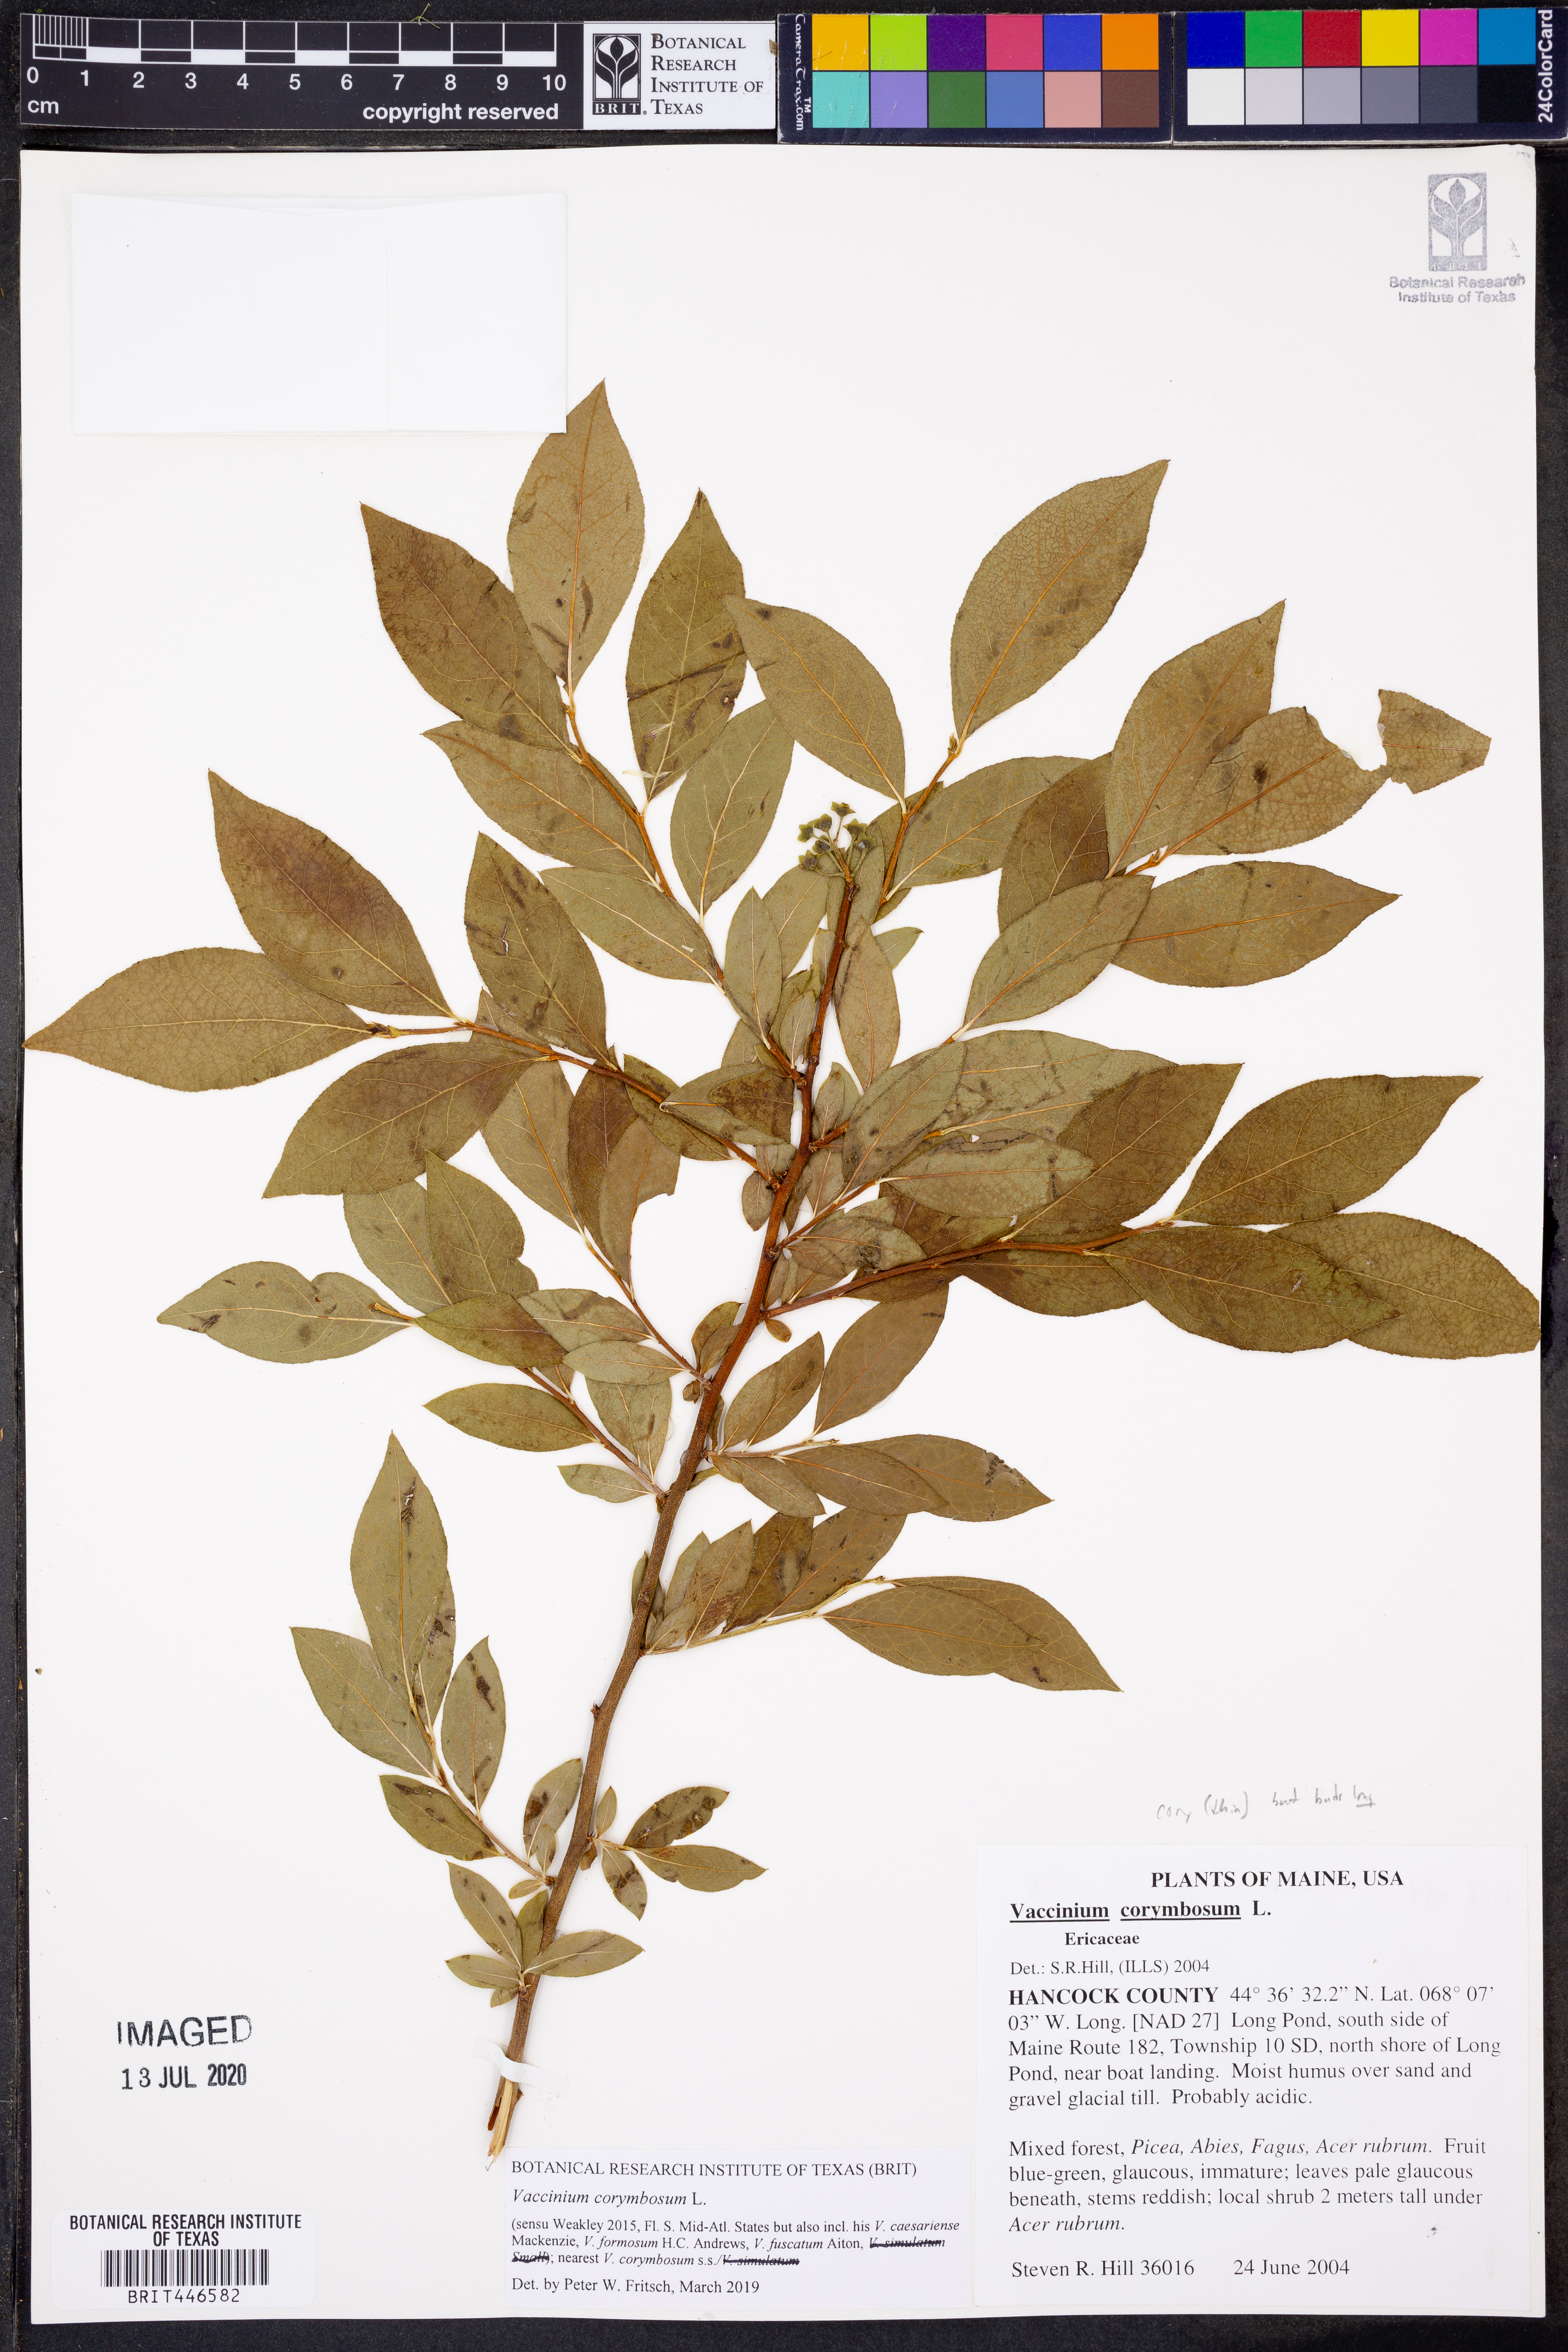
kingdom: Plantae
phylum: Tracheophyta
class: Magnoliopsida
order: Ericales
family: Ericaceae
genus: Vaccinium
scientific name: Vaccinium corymbosum
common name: Blueberry
